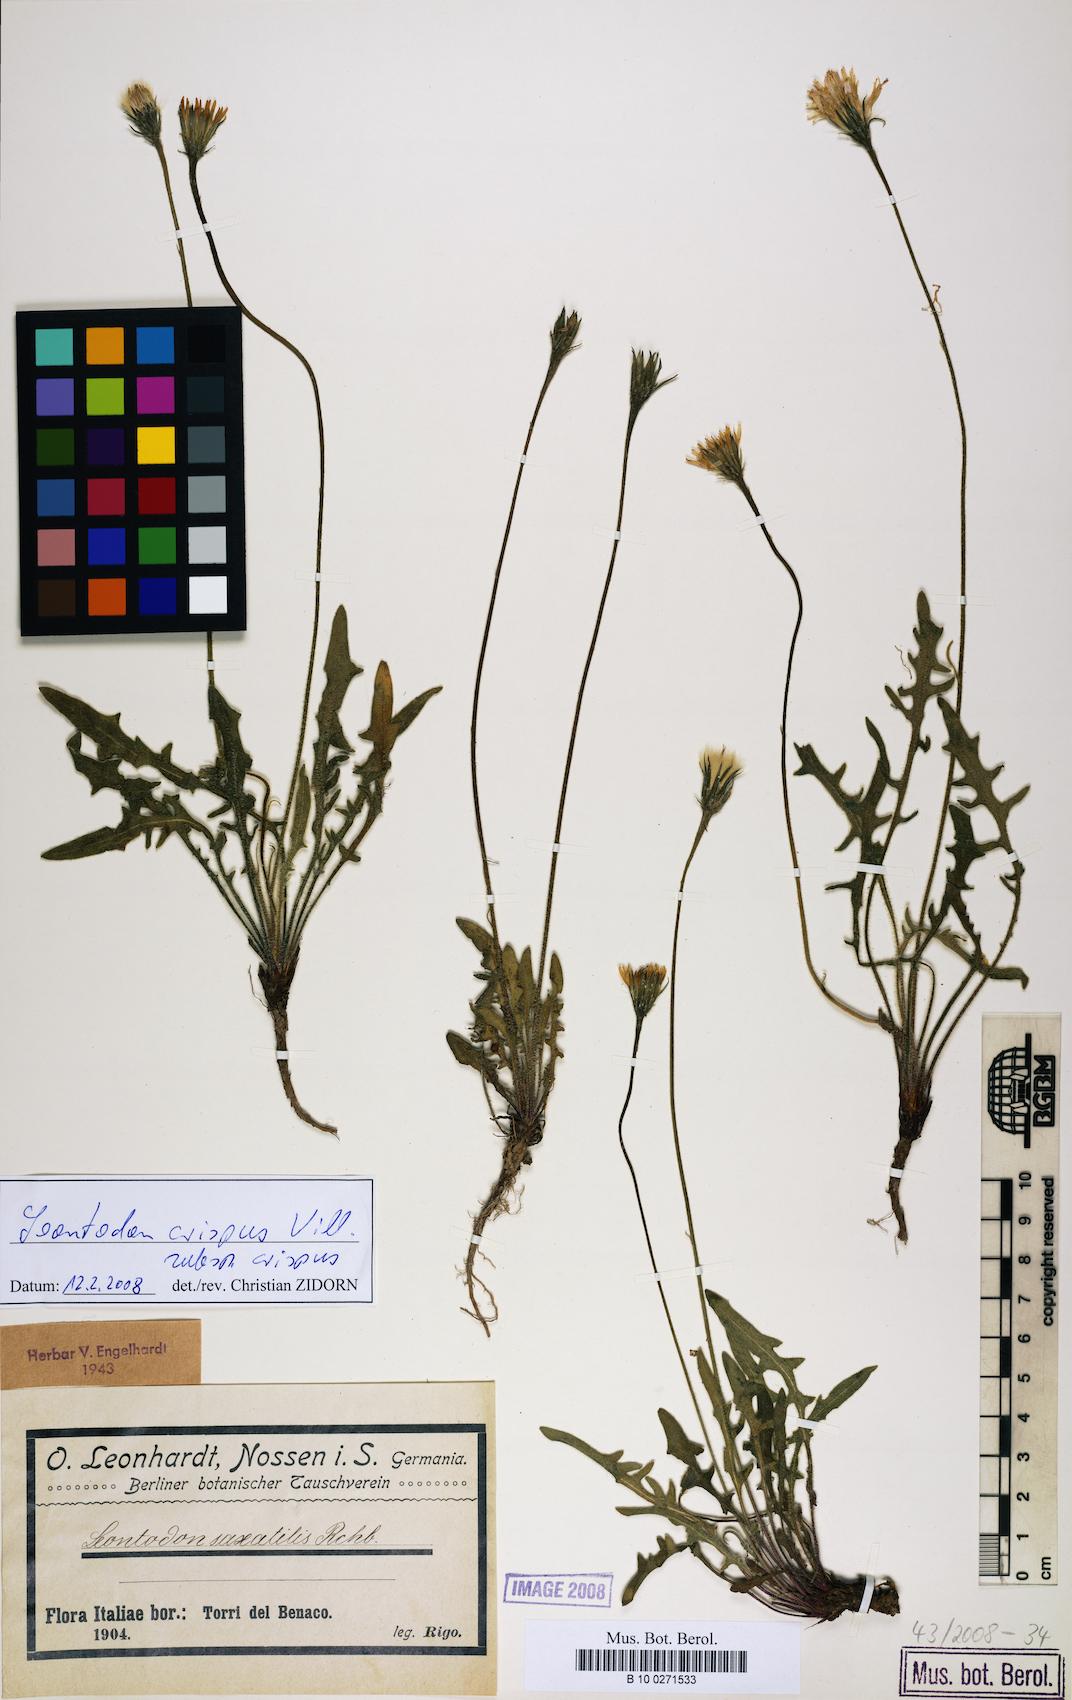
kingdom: Plantae
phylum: Tracheophyta
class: Magnoliopsida
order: Asterales
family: Asteraceae
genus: Leontodon
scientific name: Leontodon hyoseroides
